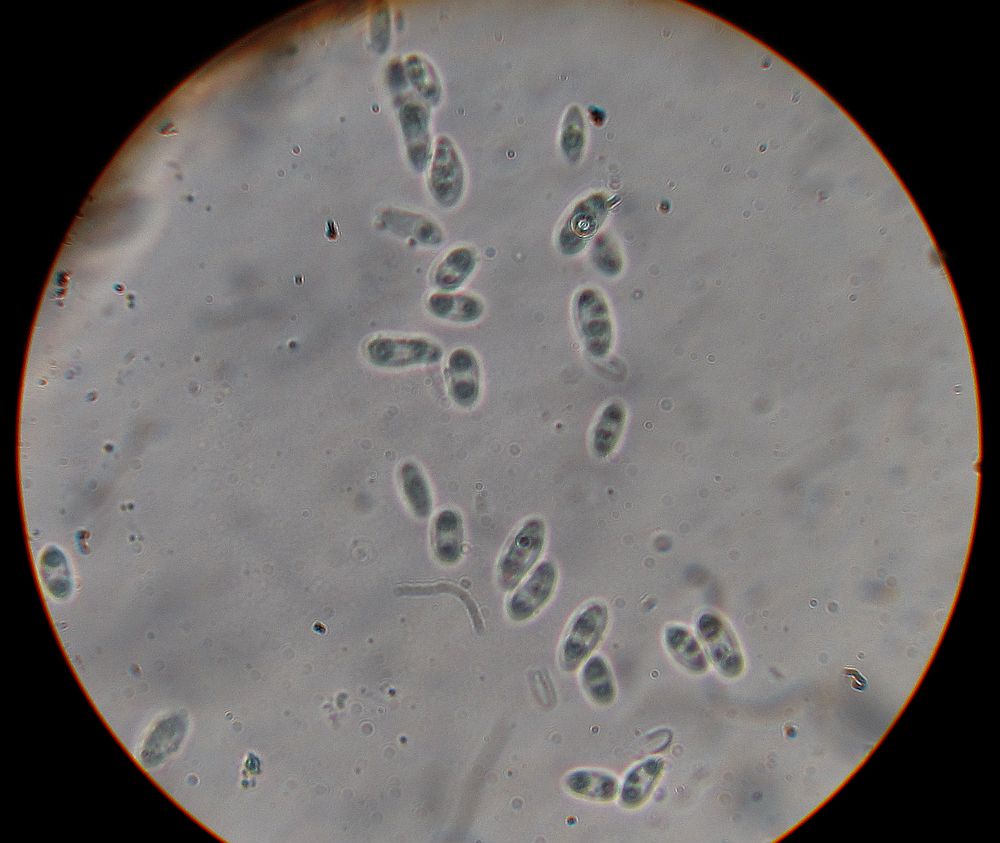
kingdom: Fungi
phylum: Ascomycota
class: Sordariomycetes
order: Diaporthales
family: Diaporthaceae
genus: Diaporthe
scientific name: Diaporthe samaricola
